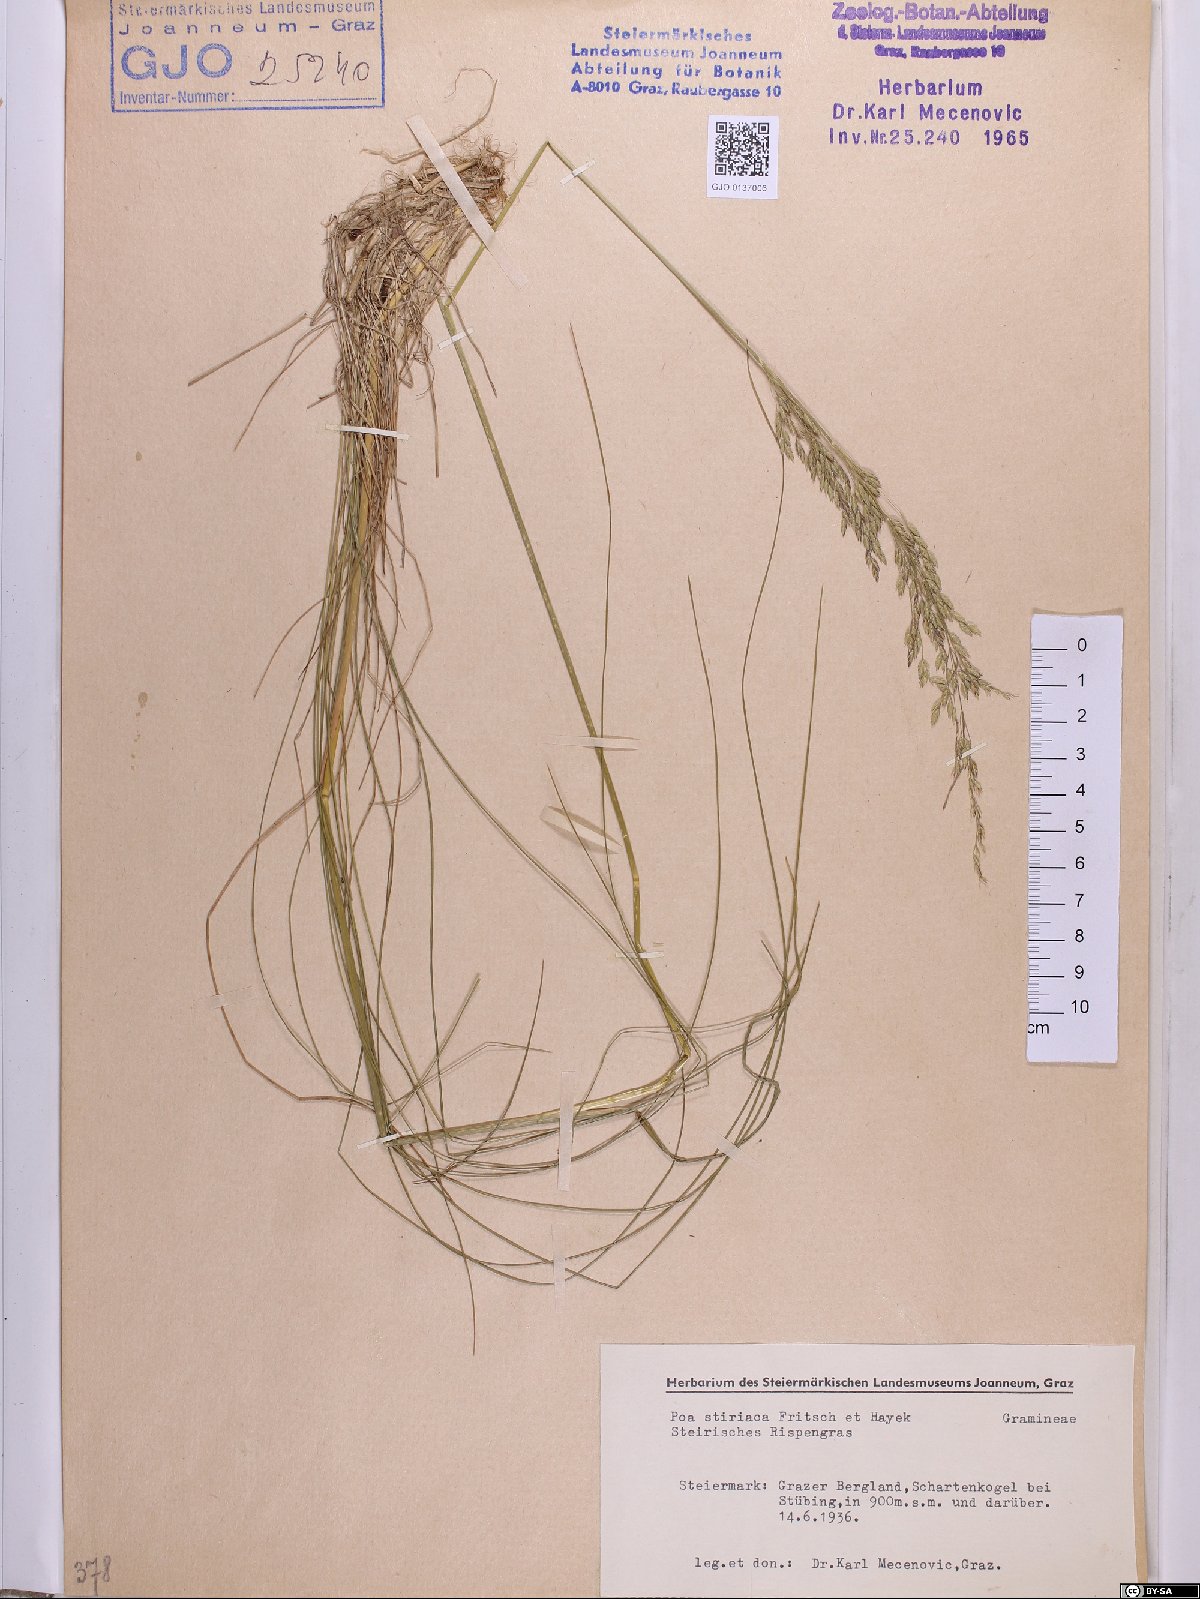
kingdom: Plantae
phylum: Tracheophyta
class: Liliopsida
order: Poales
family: Poaceae
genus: Poa
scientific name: Poa stiriaca
